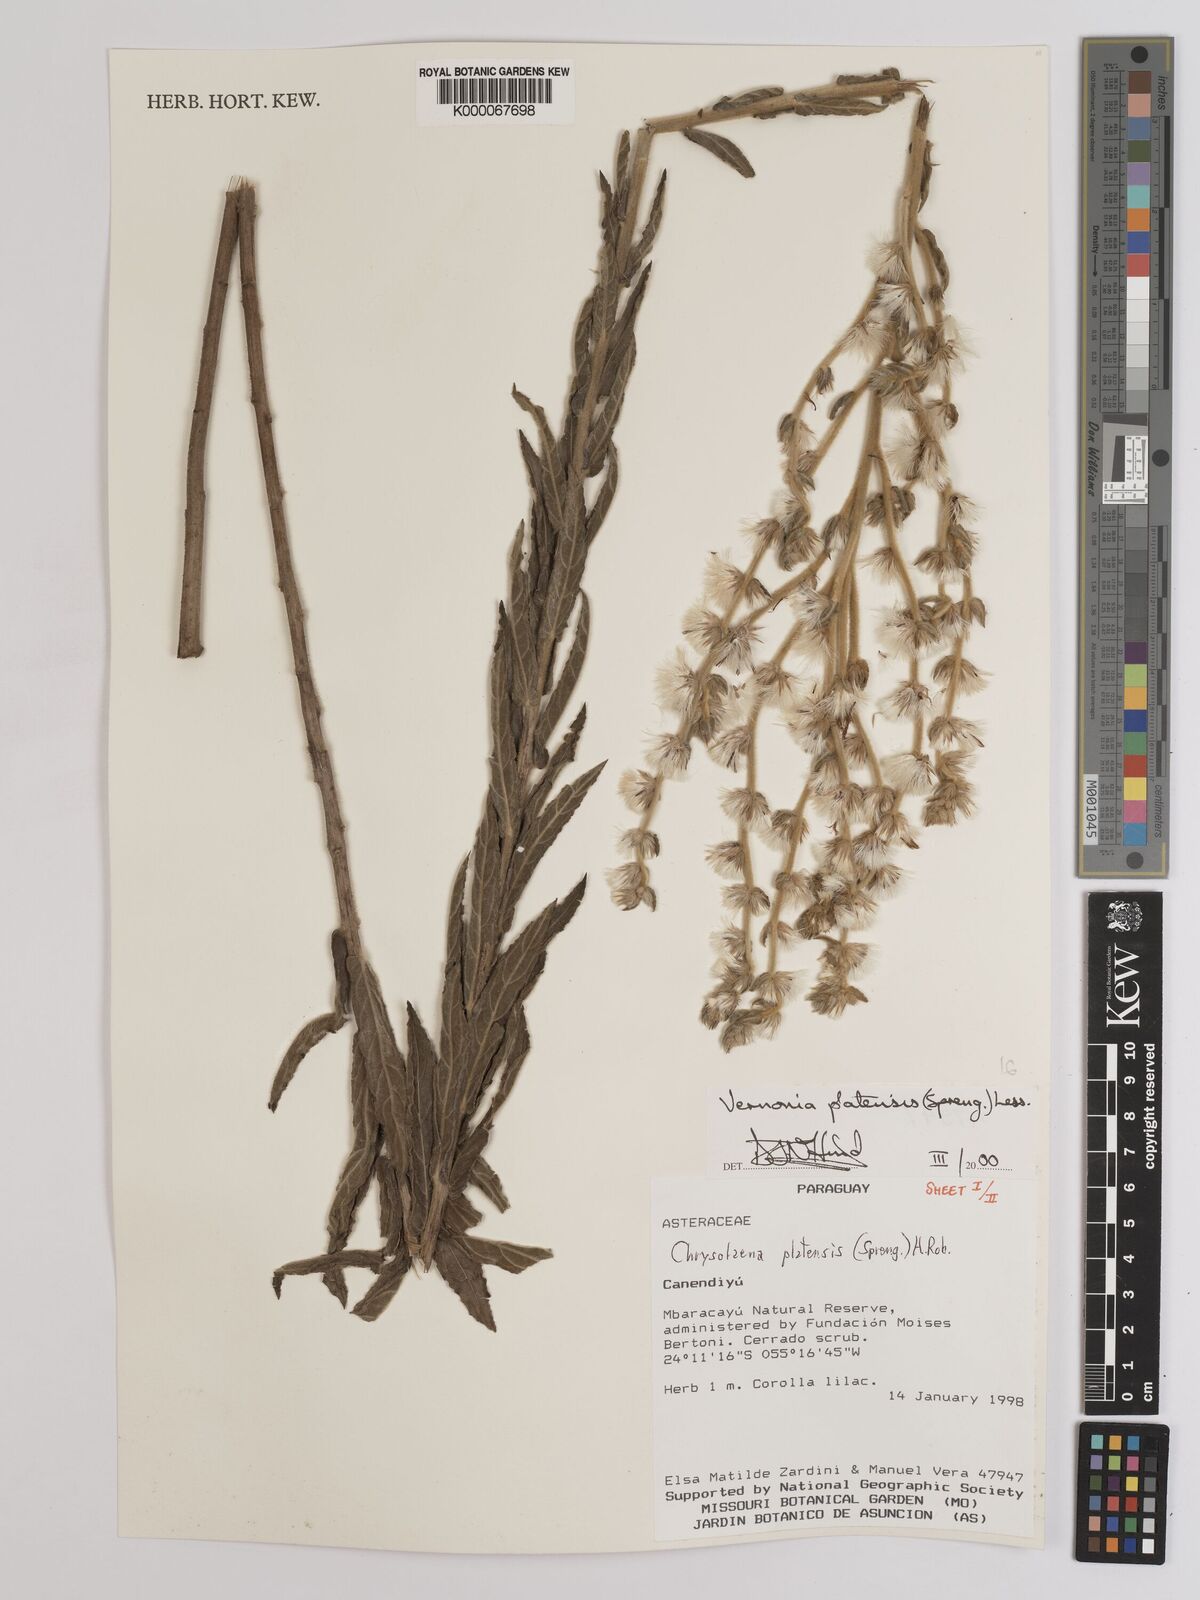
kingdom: Plantae
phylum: Tracheophyta
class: Magnoliopsida
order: Asterales
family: Asteraceae
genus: Chrysolaena
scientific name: Chrysolaena platensis
